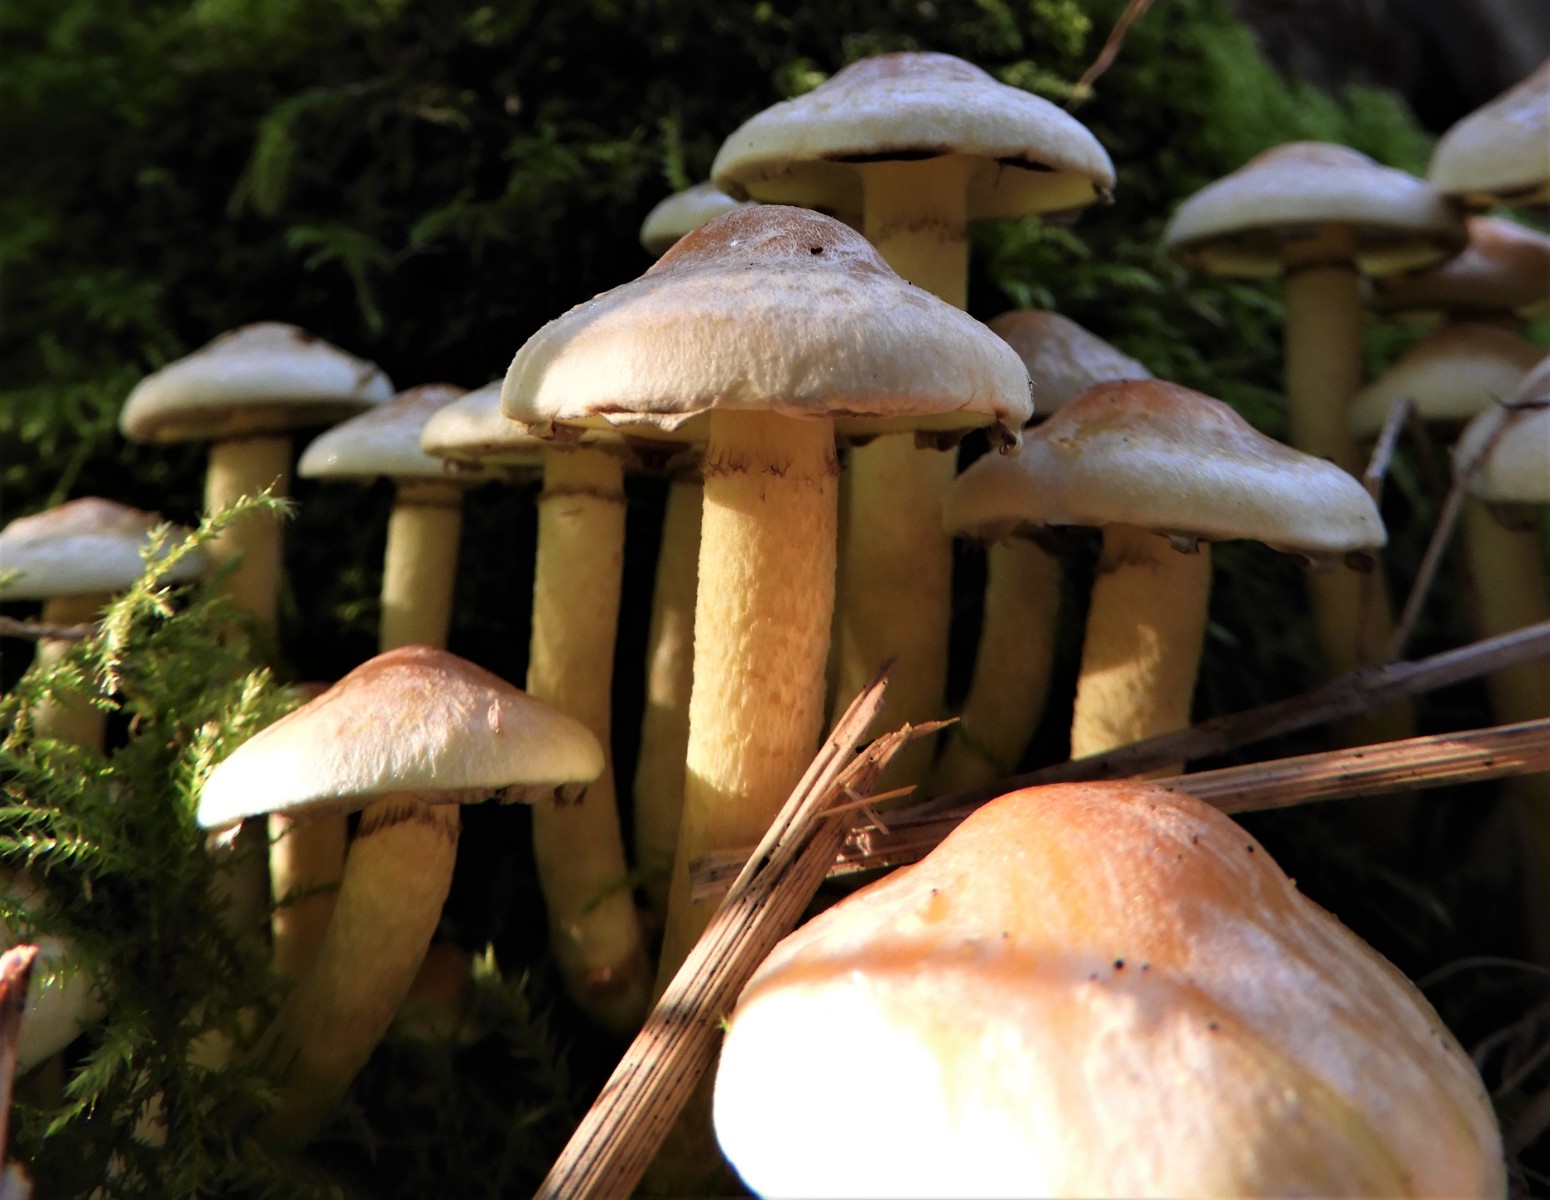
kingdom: Fungi
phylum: Basidiomycota
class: Agaricomycetes
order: Agaricales
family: Strophariaceae
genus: Hypholoma
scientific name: Hypholoma fasciculare
